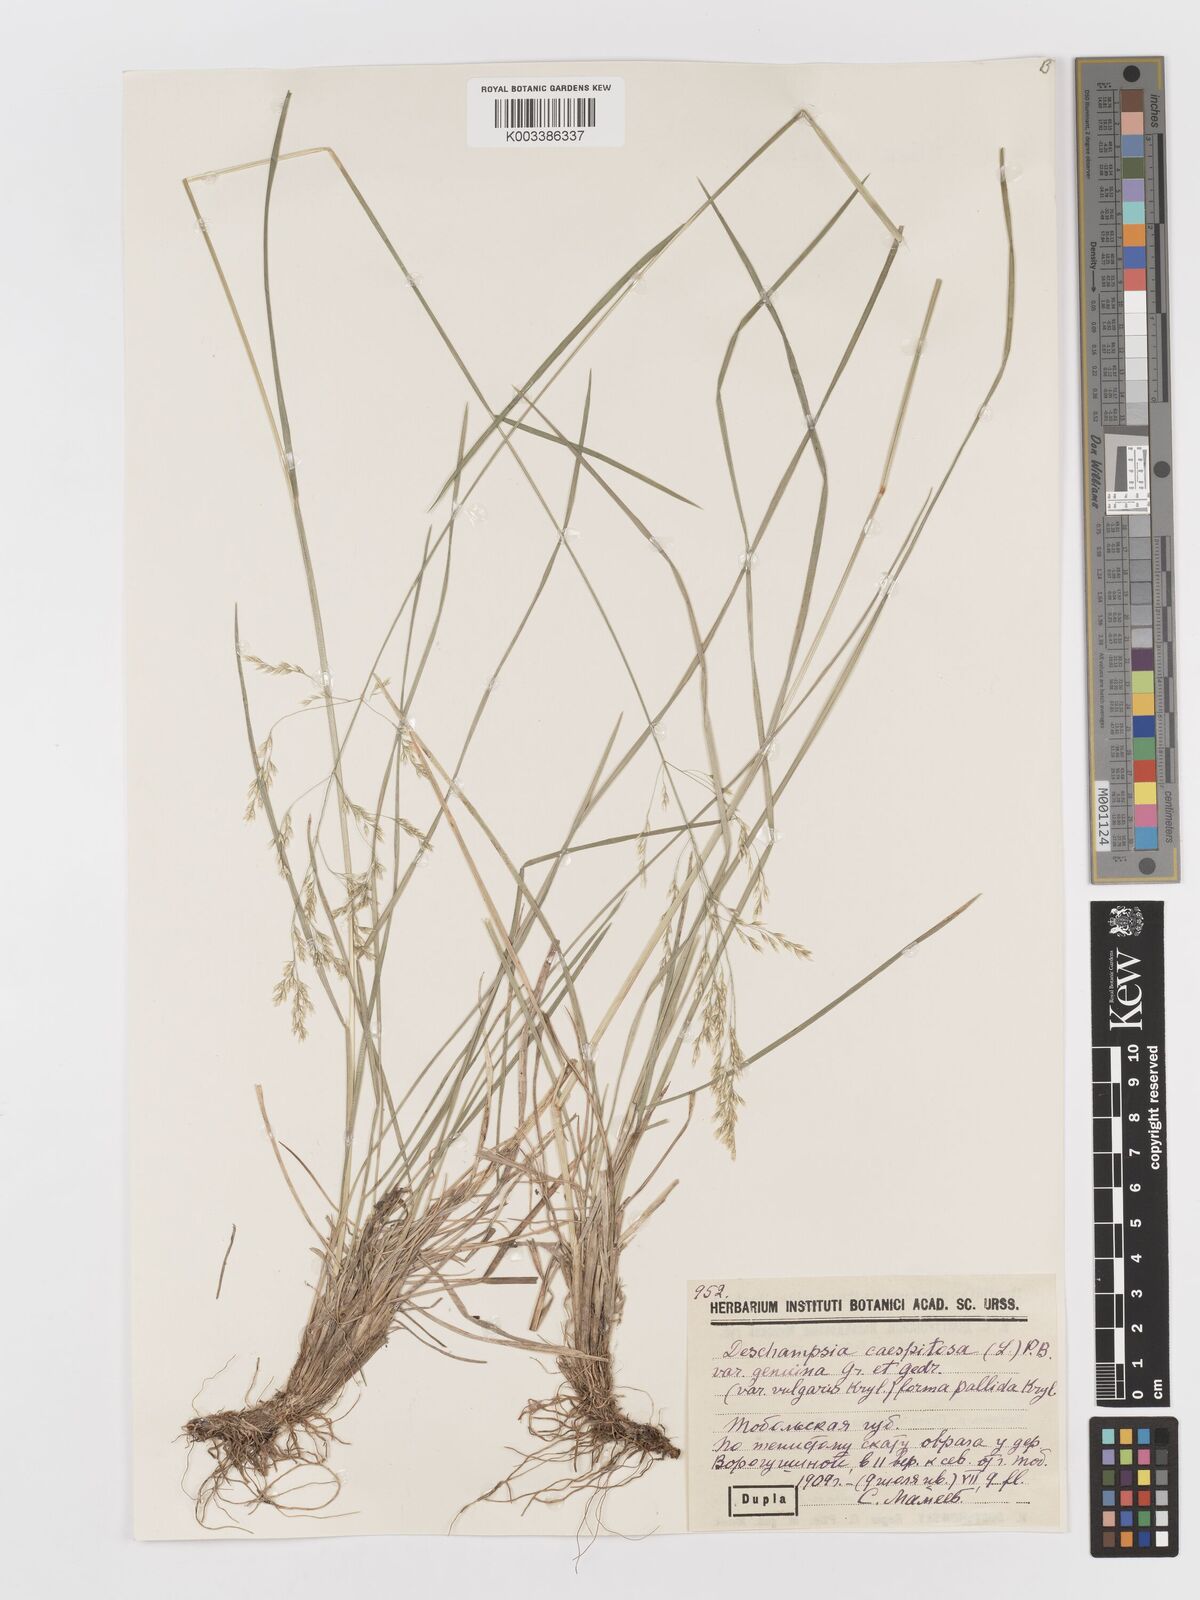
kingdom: Plantae
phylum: Tracheophyta
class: Liliopsida
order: Poales
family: Poaceae
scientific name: Poaceae
